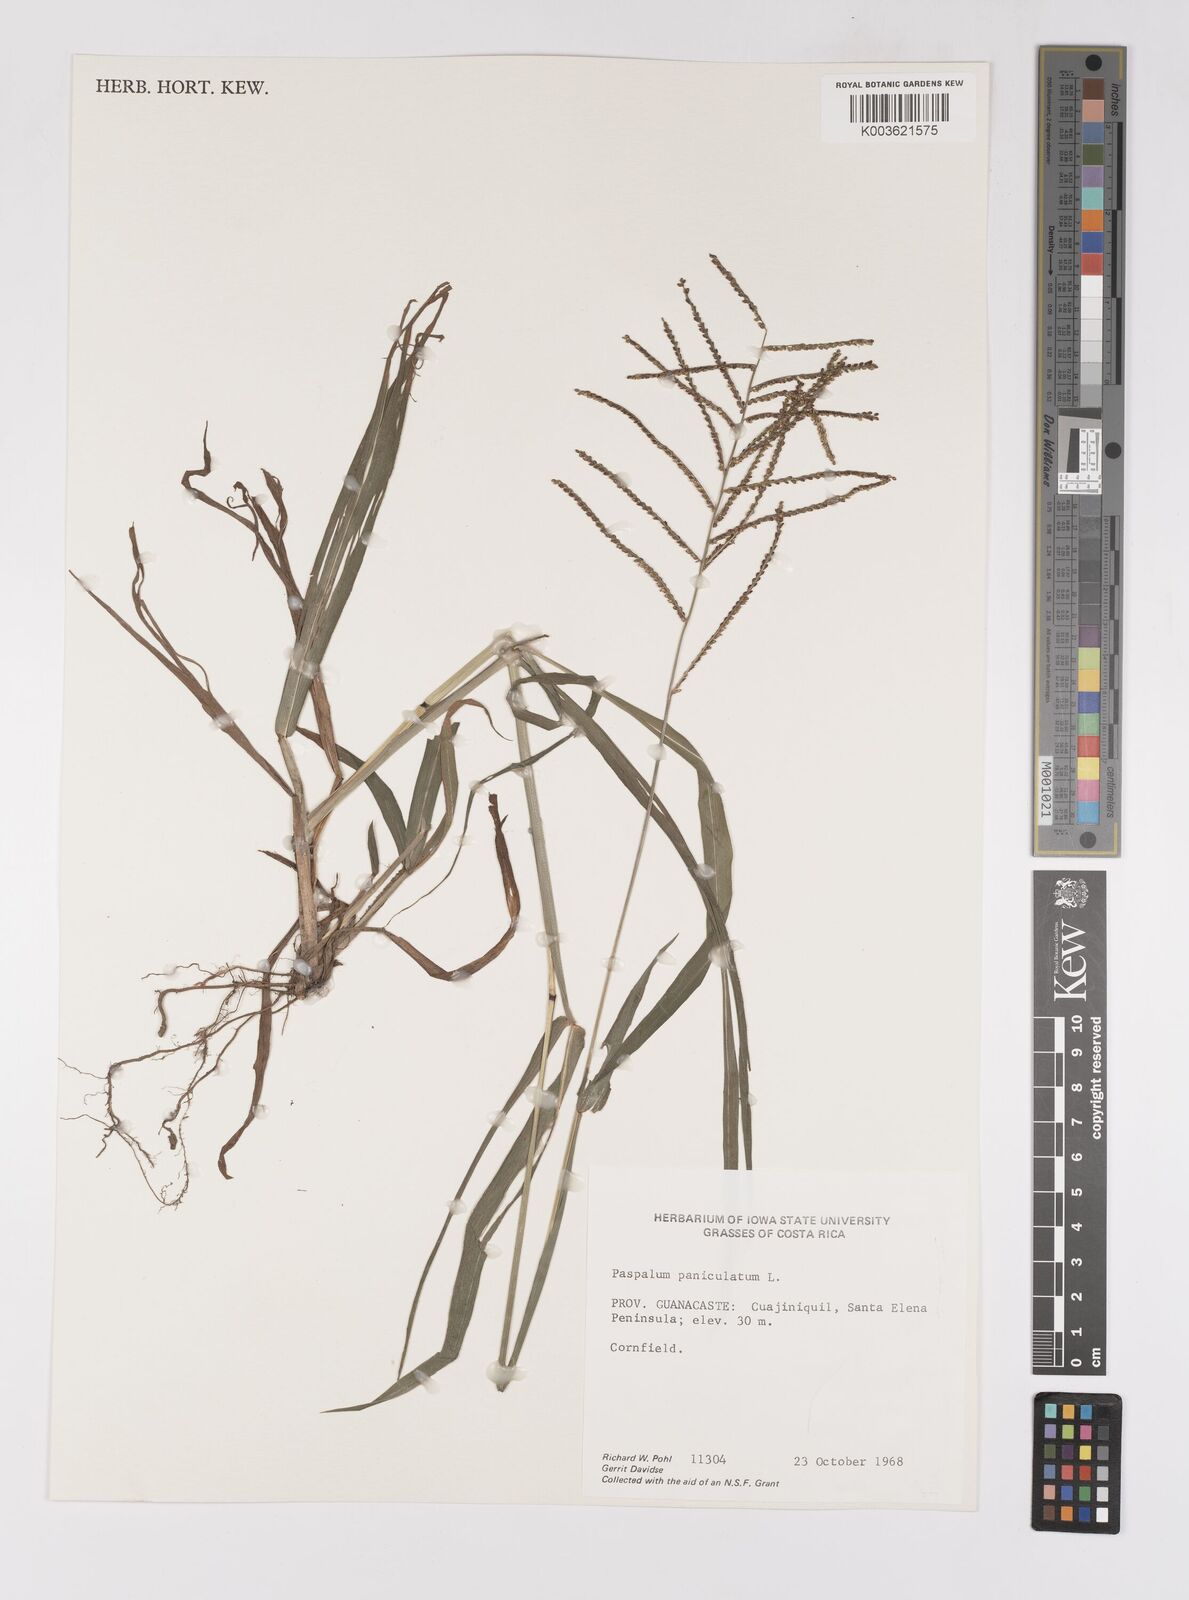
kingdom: Plantae
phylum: Tracheophyta
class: Liliopsida
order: Poales
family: Poaceae
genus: Paspalum
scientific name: Paspalum paniculatum
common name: Arrocillo
